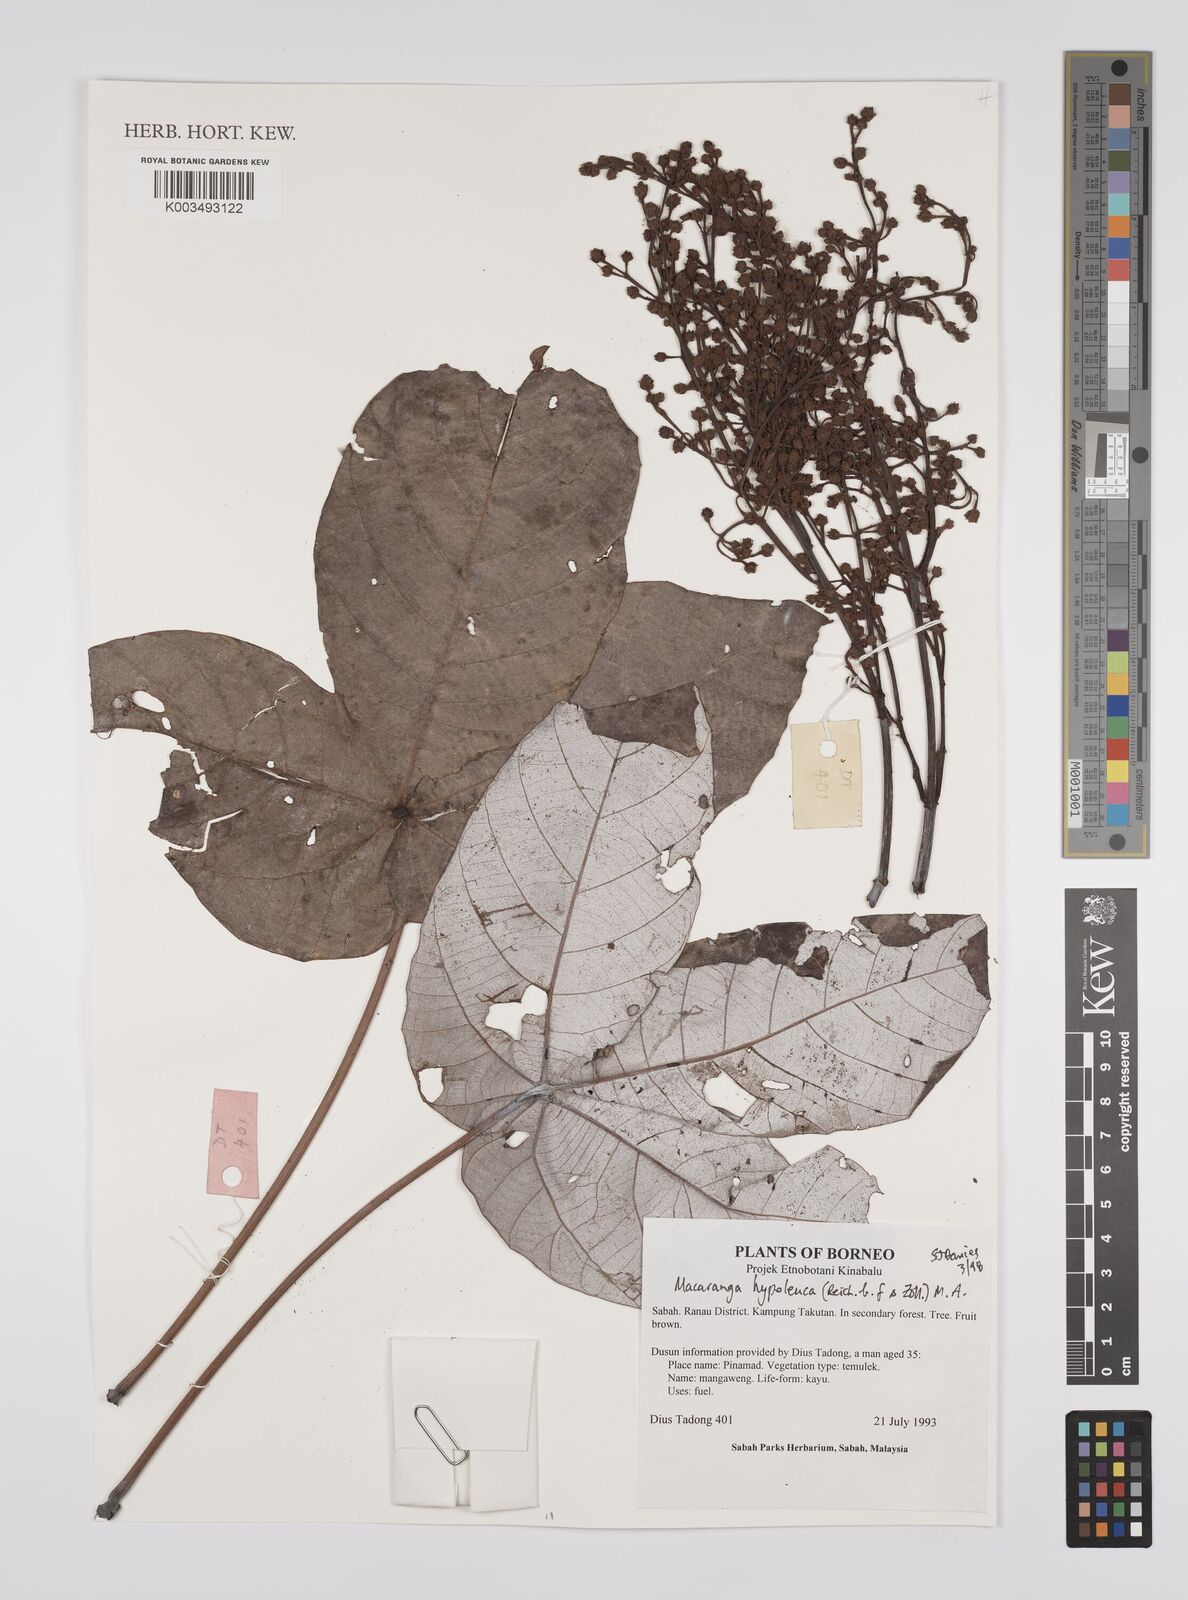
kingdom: Plantae
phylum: Tracheophyta
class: Magnoliopsida
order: Malpighiales
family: Euphorbiaceae
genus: Macaranga
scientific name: Macaranga hypoleuca
